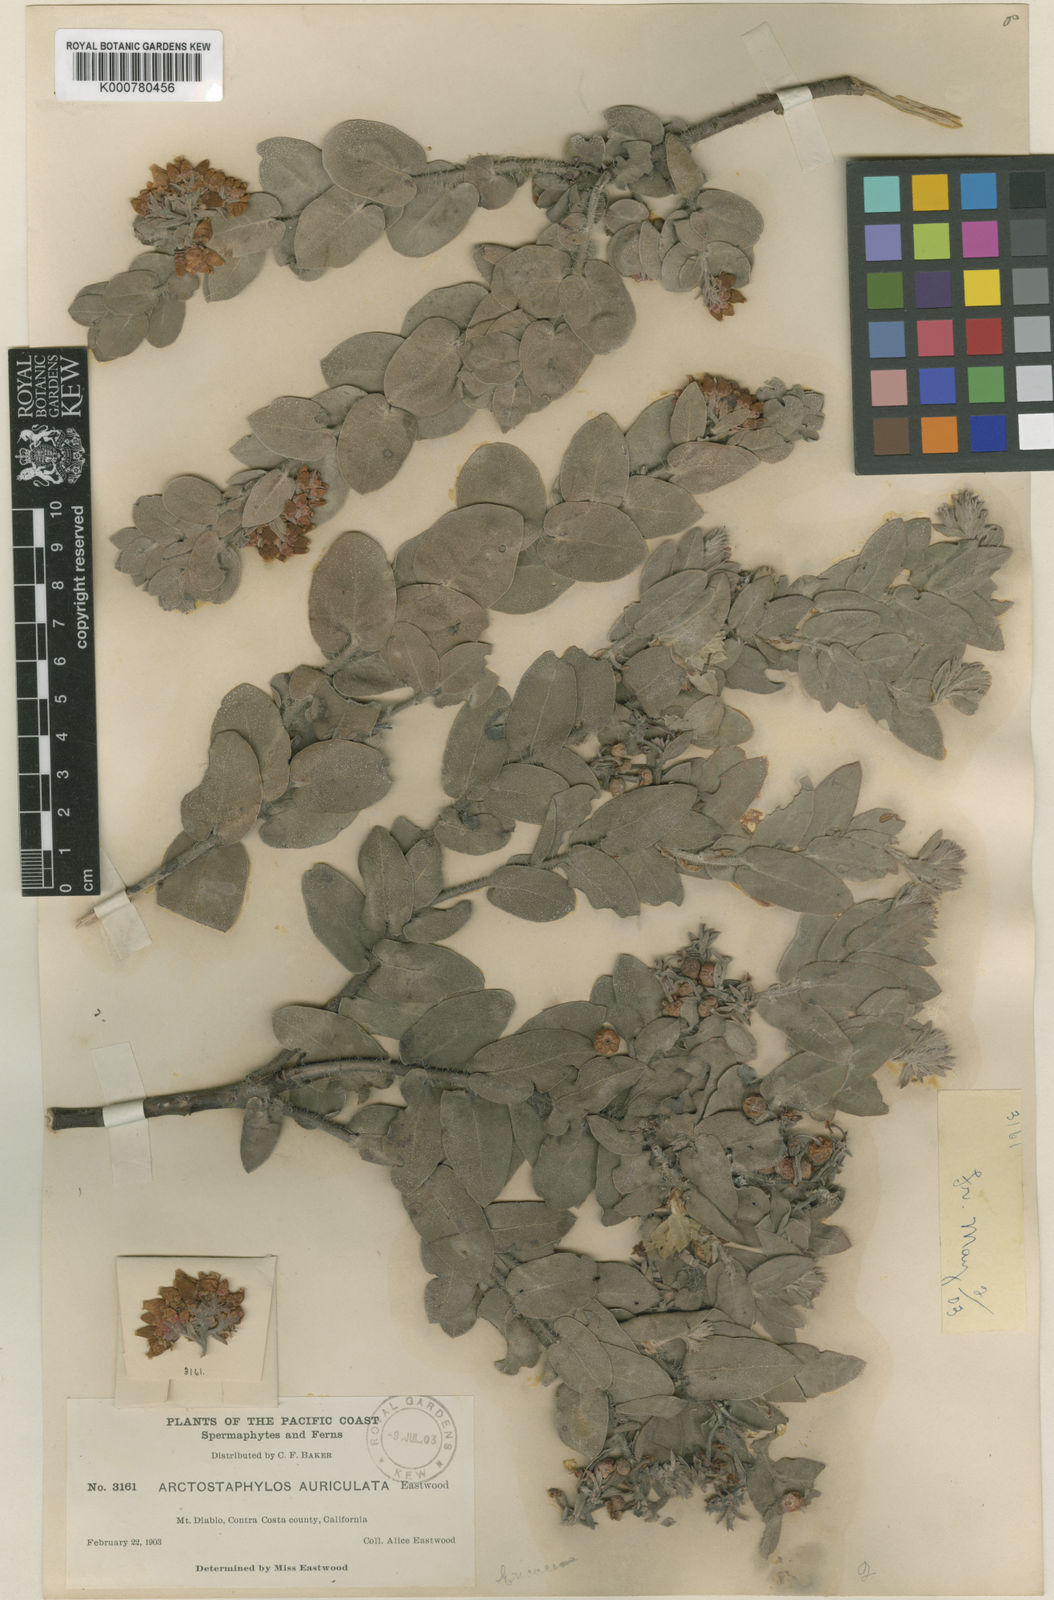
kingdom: Plantae
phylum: Tracheophyta
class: Magnoliopsida
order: Ericales
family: Ericaceae
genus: Arctostaphylos
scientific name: Arctostaphylos auriculata
